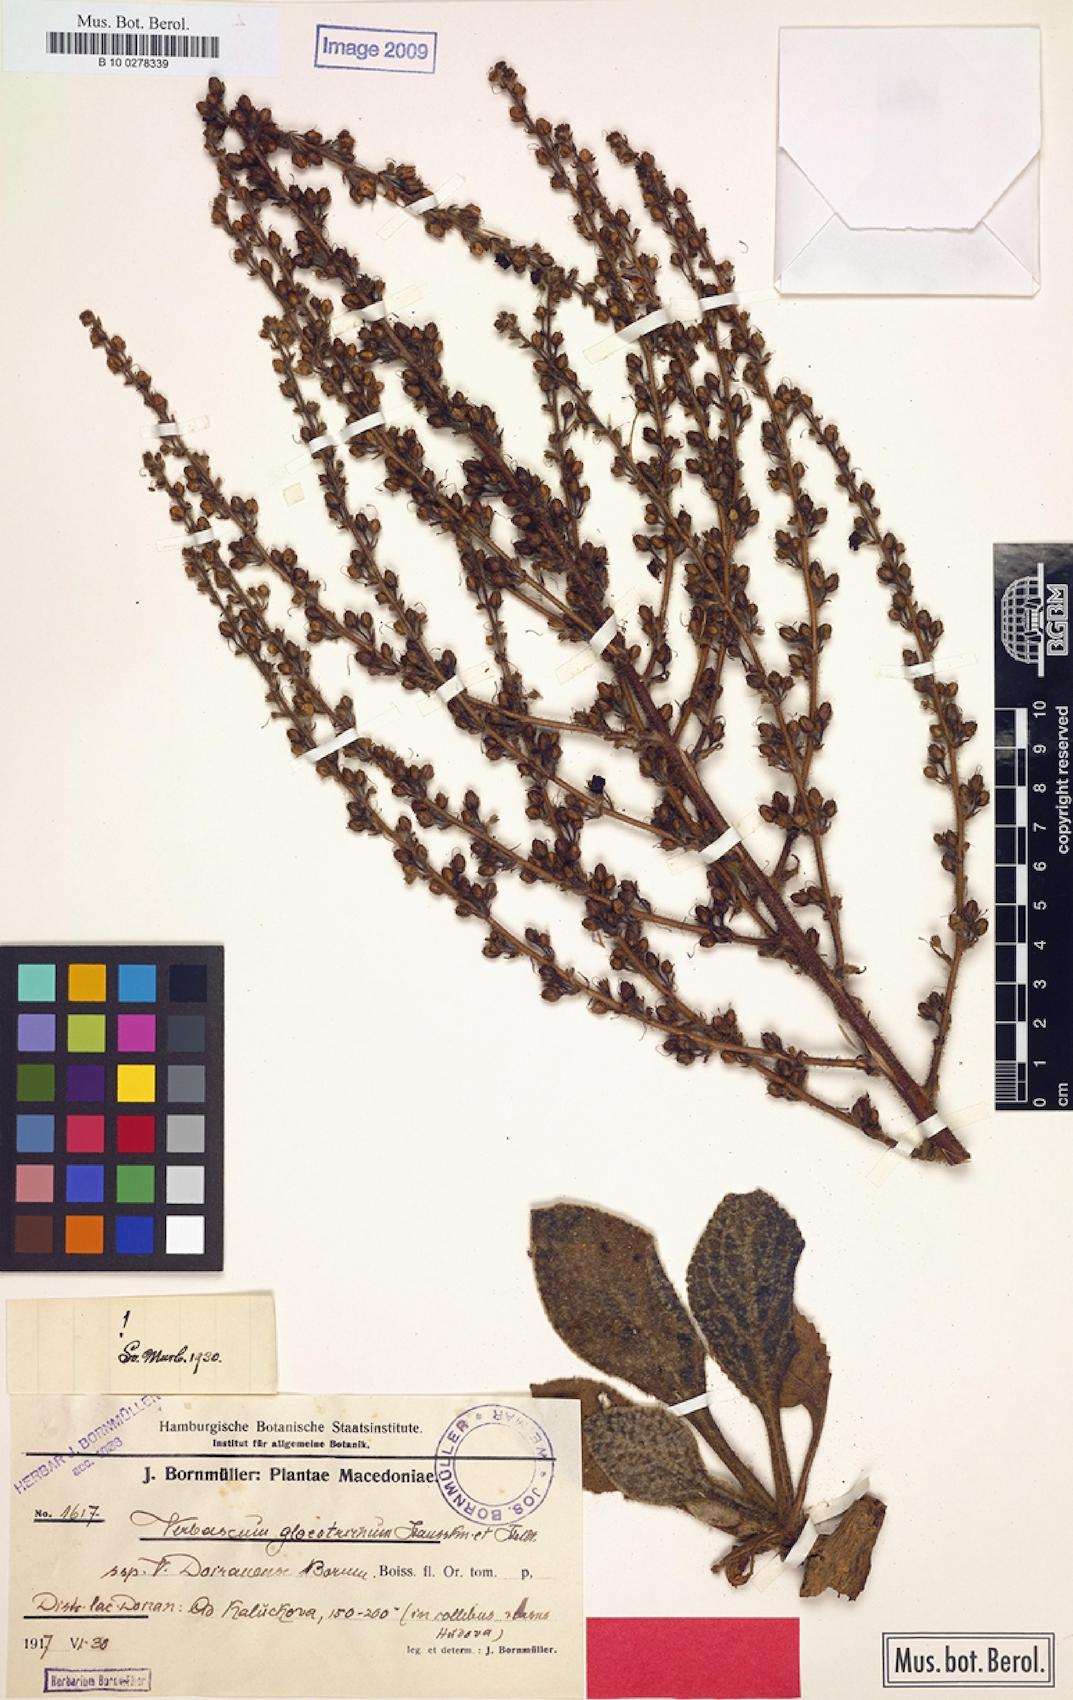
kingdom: Plantae
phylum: Tracheophyta
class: Magnoliopsida
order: Lamiales
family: Scrophulariaceae
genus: Verbascum
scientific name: Verbascum gloeotrichum
